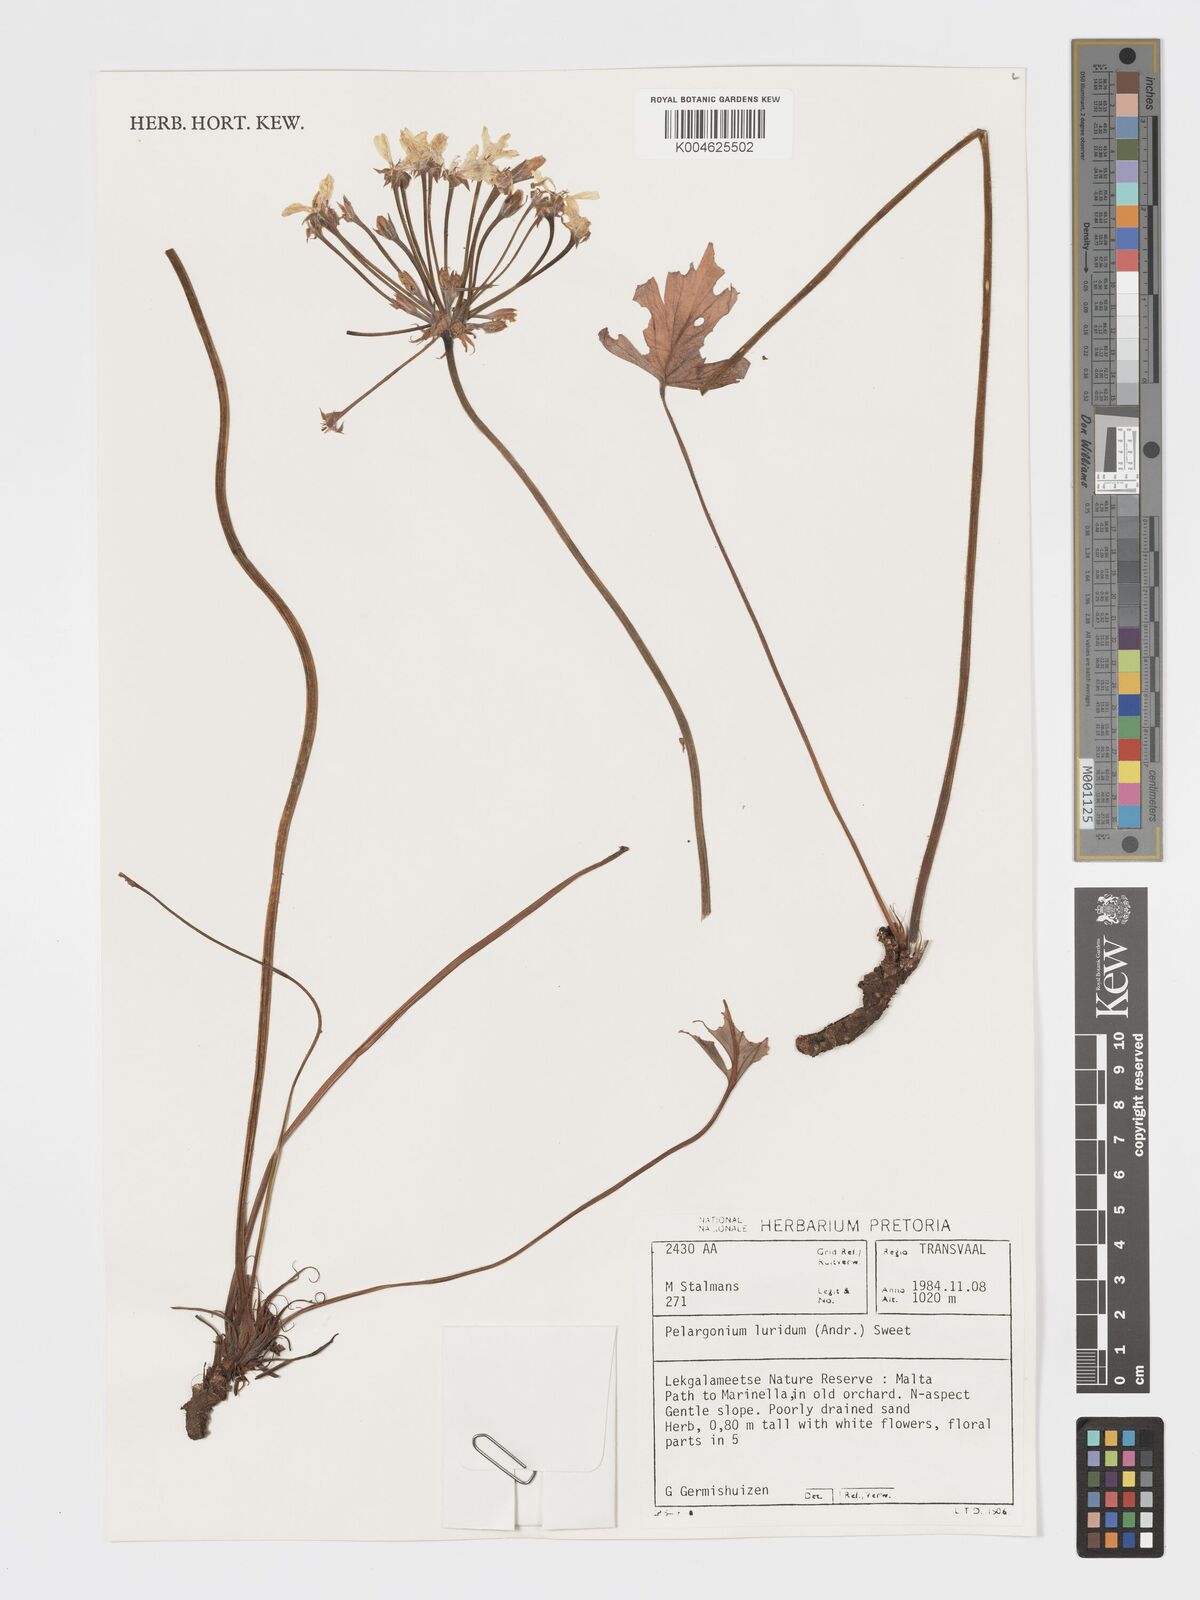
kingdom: Plantae
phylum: Tracheophyta
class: Magnoliopsida
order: Geraniales
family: Geraniaceae
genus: Pelargonium
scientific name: Pelargonium luridum
